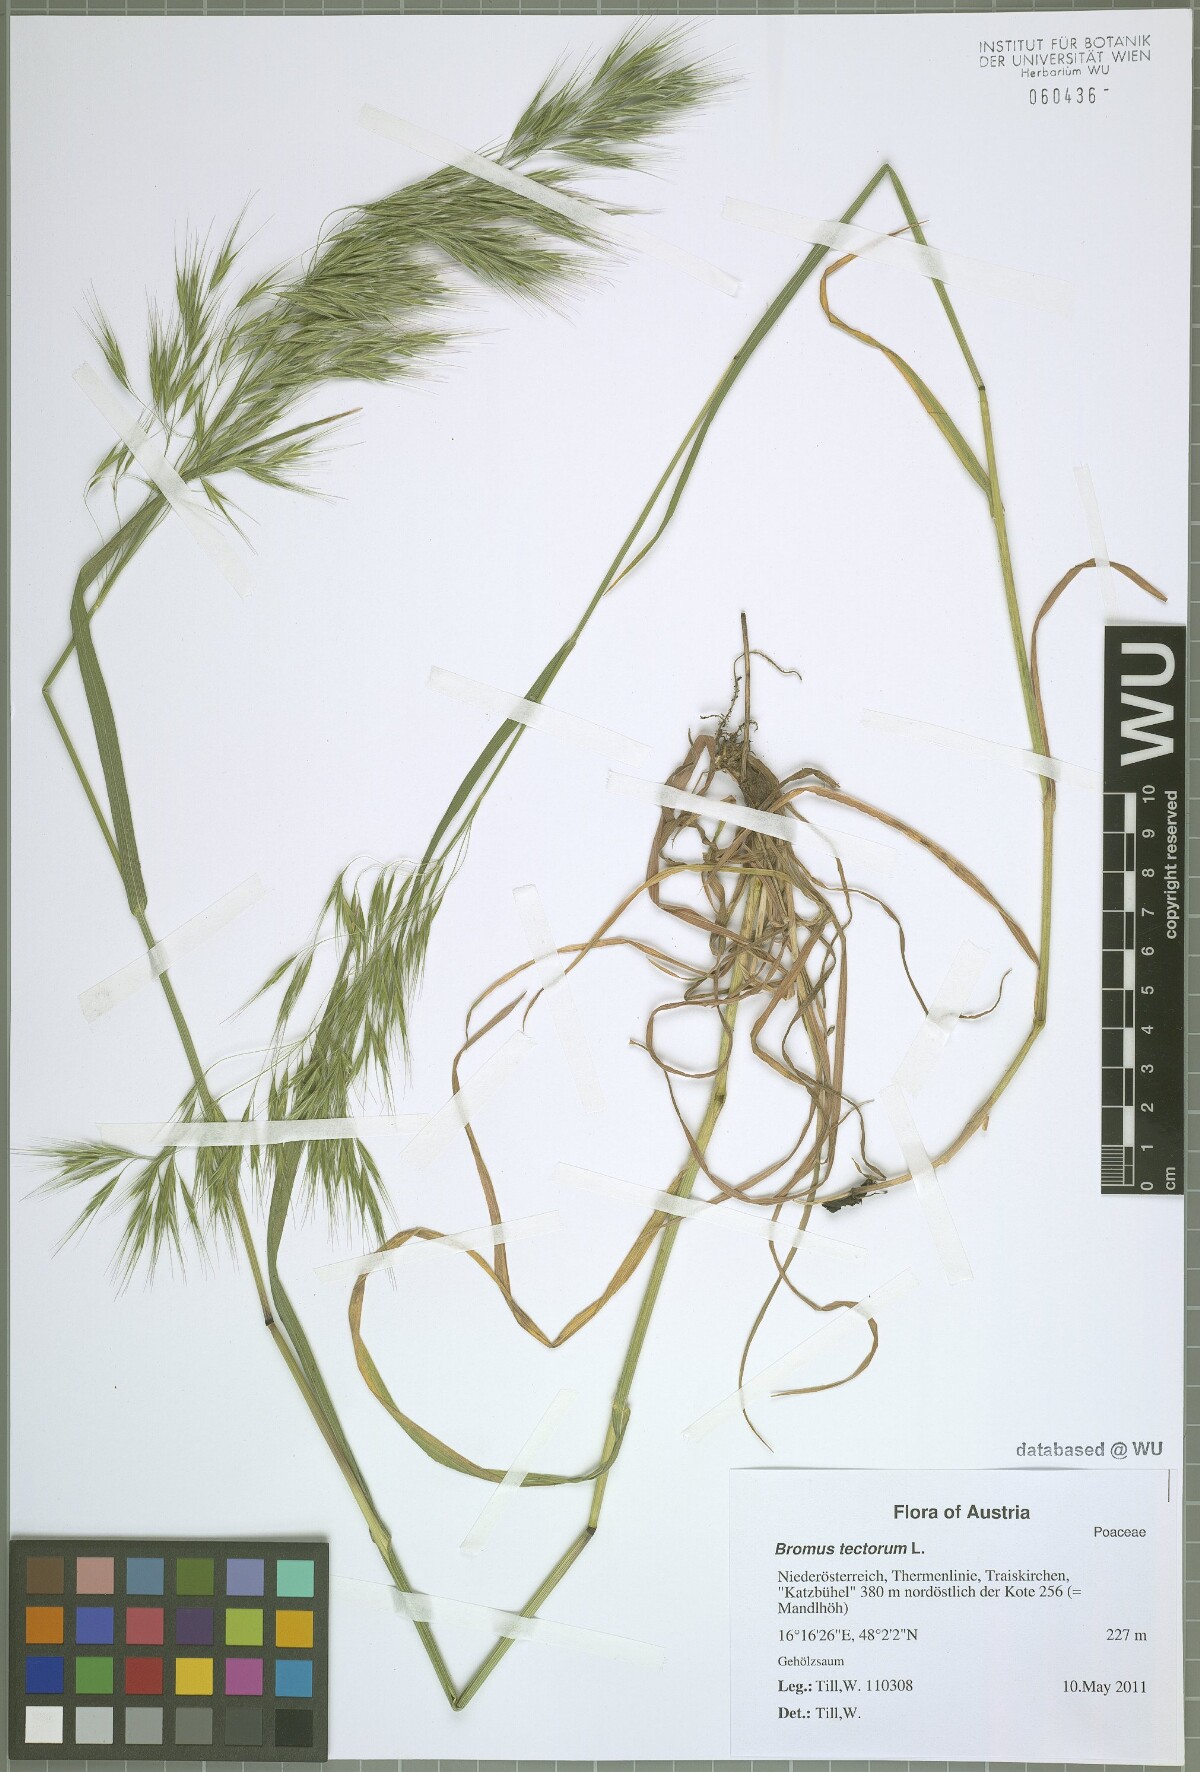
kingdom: Plantae
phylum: Tracheophyta
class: Liliopsida
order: Poales
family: Poaceae
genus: Bromus
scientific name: Bromus tectorum
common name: Cheatgrass
